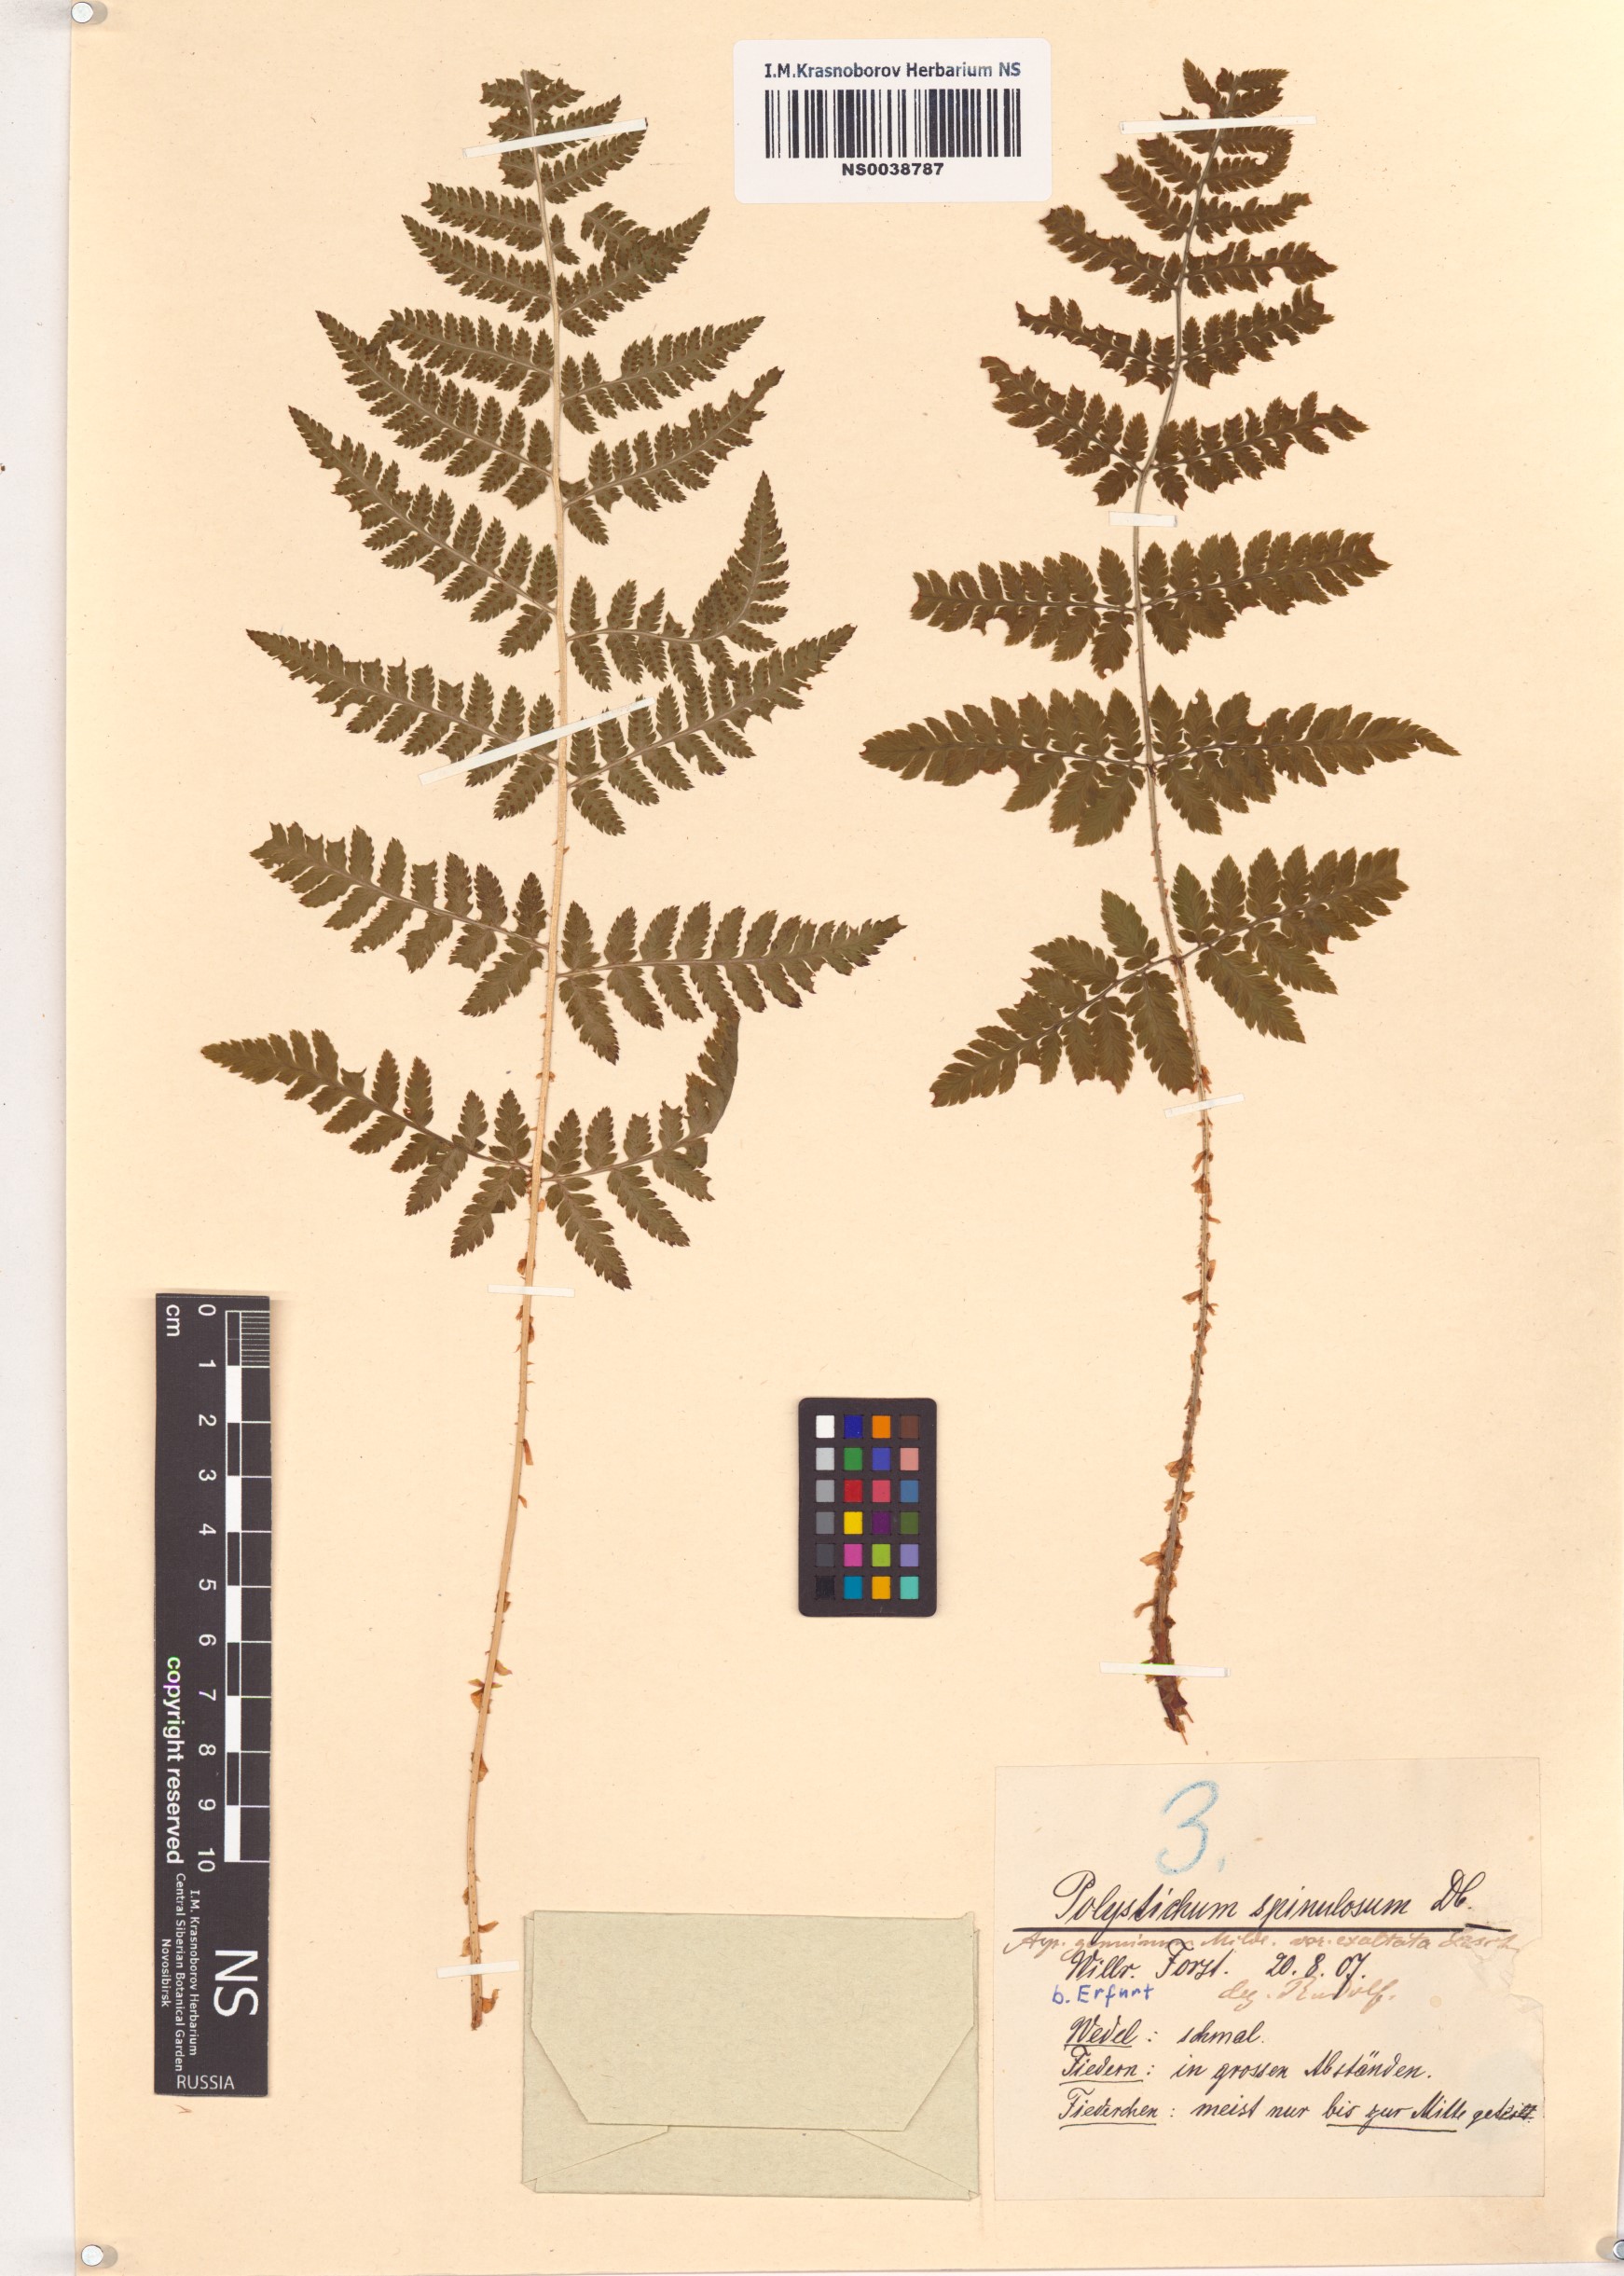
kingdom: Plantae
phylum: Tracheophyta
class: Polypodiopsida
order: Polypodiales
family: Dryopteridaceae
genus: Dryopteris
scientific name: Dryopteris carthusiana
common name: Narrow buckler-fern
